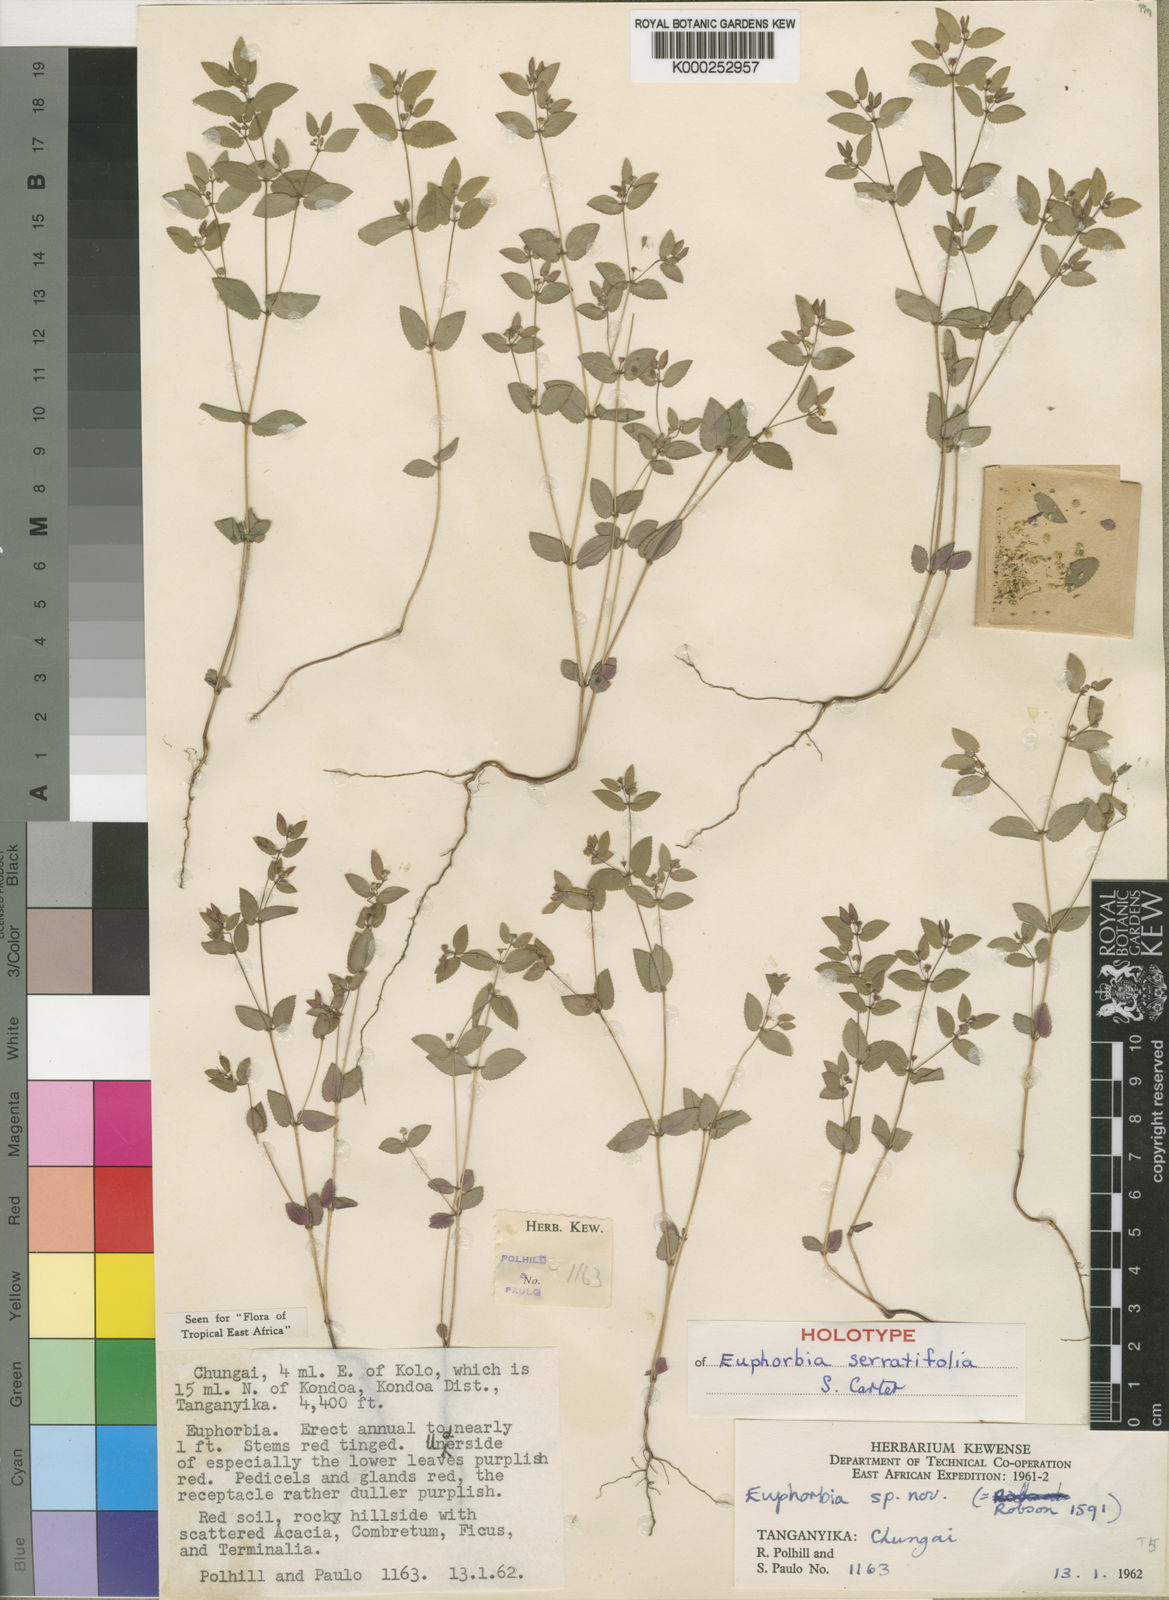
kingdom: Plantae
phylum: Tracheophyta
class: Magnoliopsida
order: Malpighiales
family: Euphorbiaceae
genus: Euphorbia
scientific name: Euphorbia serratifolia
